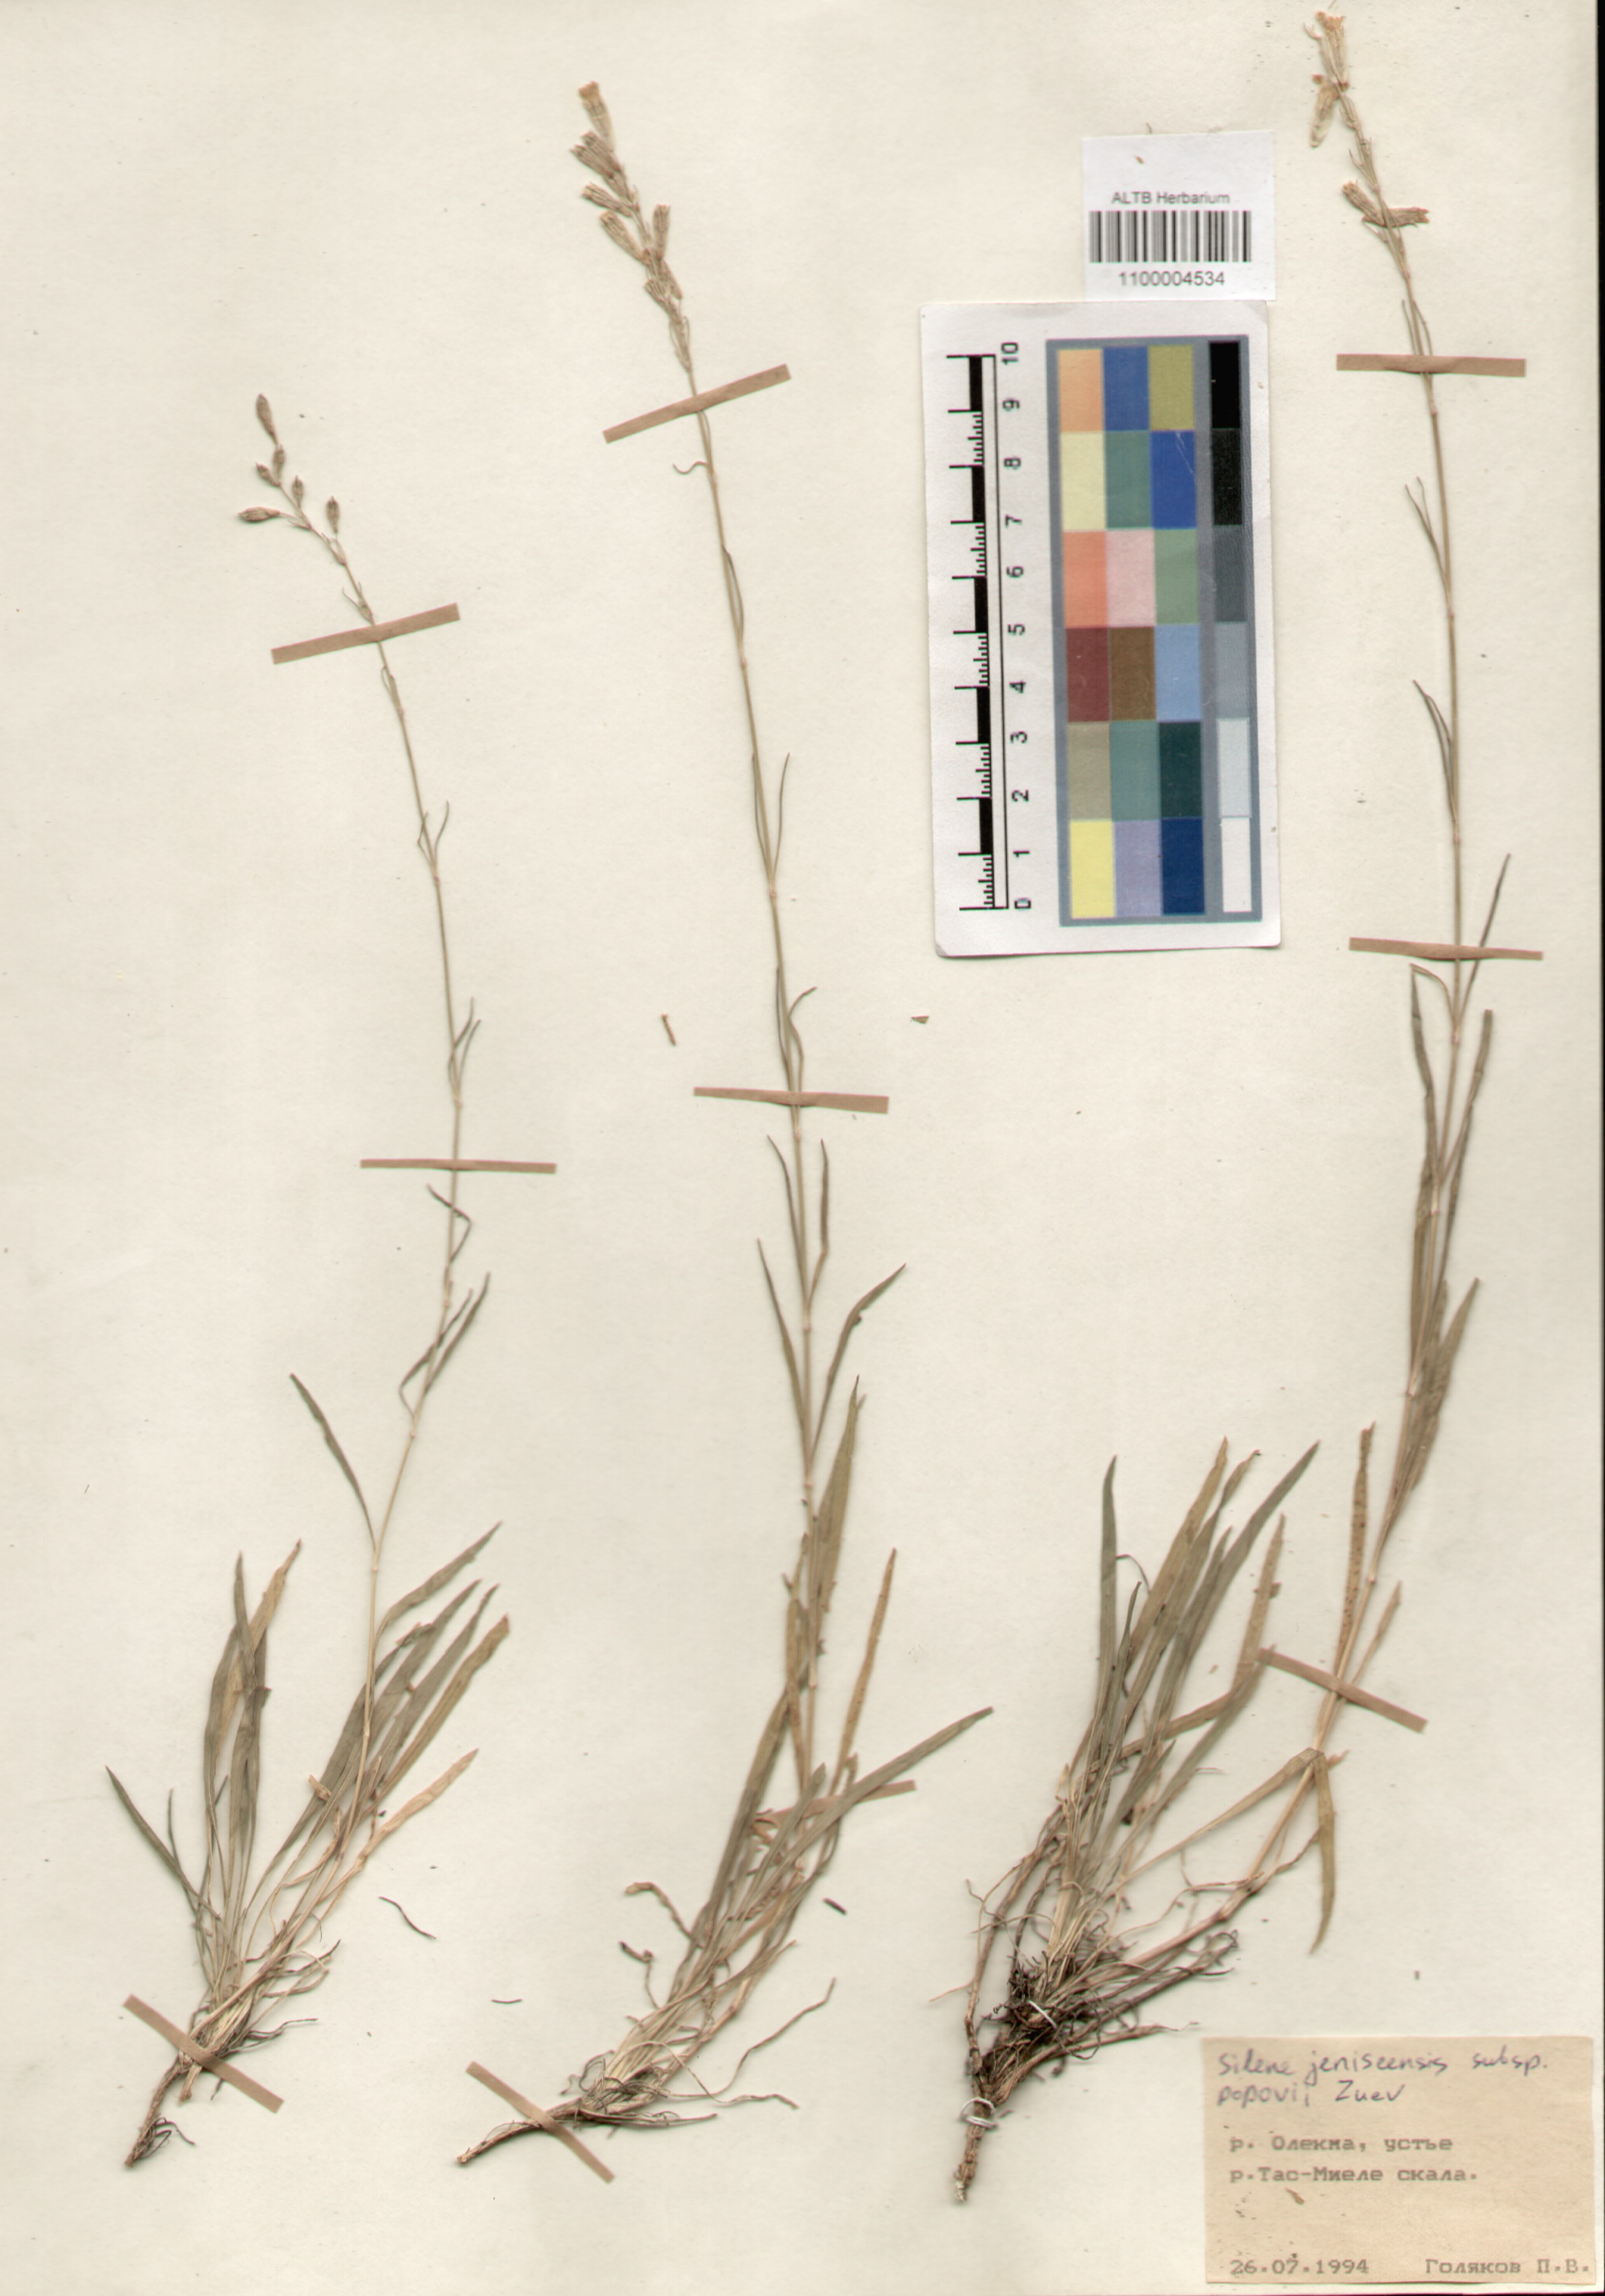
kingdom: Plantae
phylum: Tracheophyta
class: Magnoliopsida
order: Caryophyllales
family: Caryophyllaceae
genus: Silene
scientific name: Silene jeniseensis
